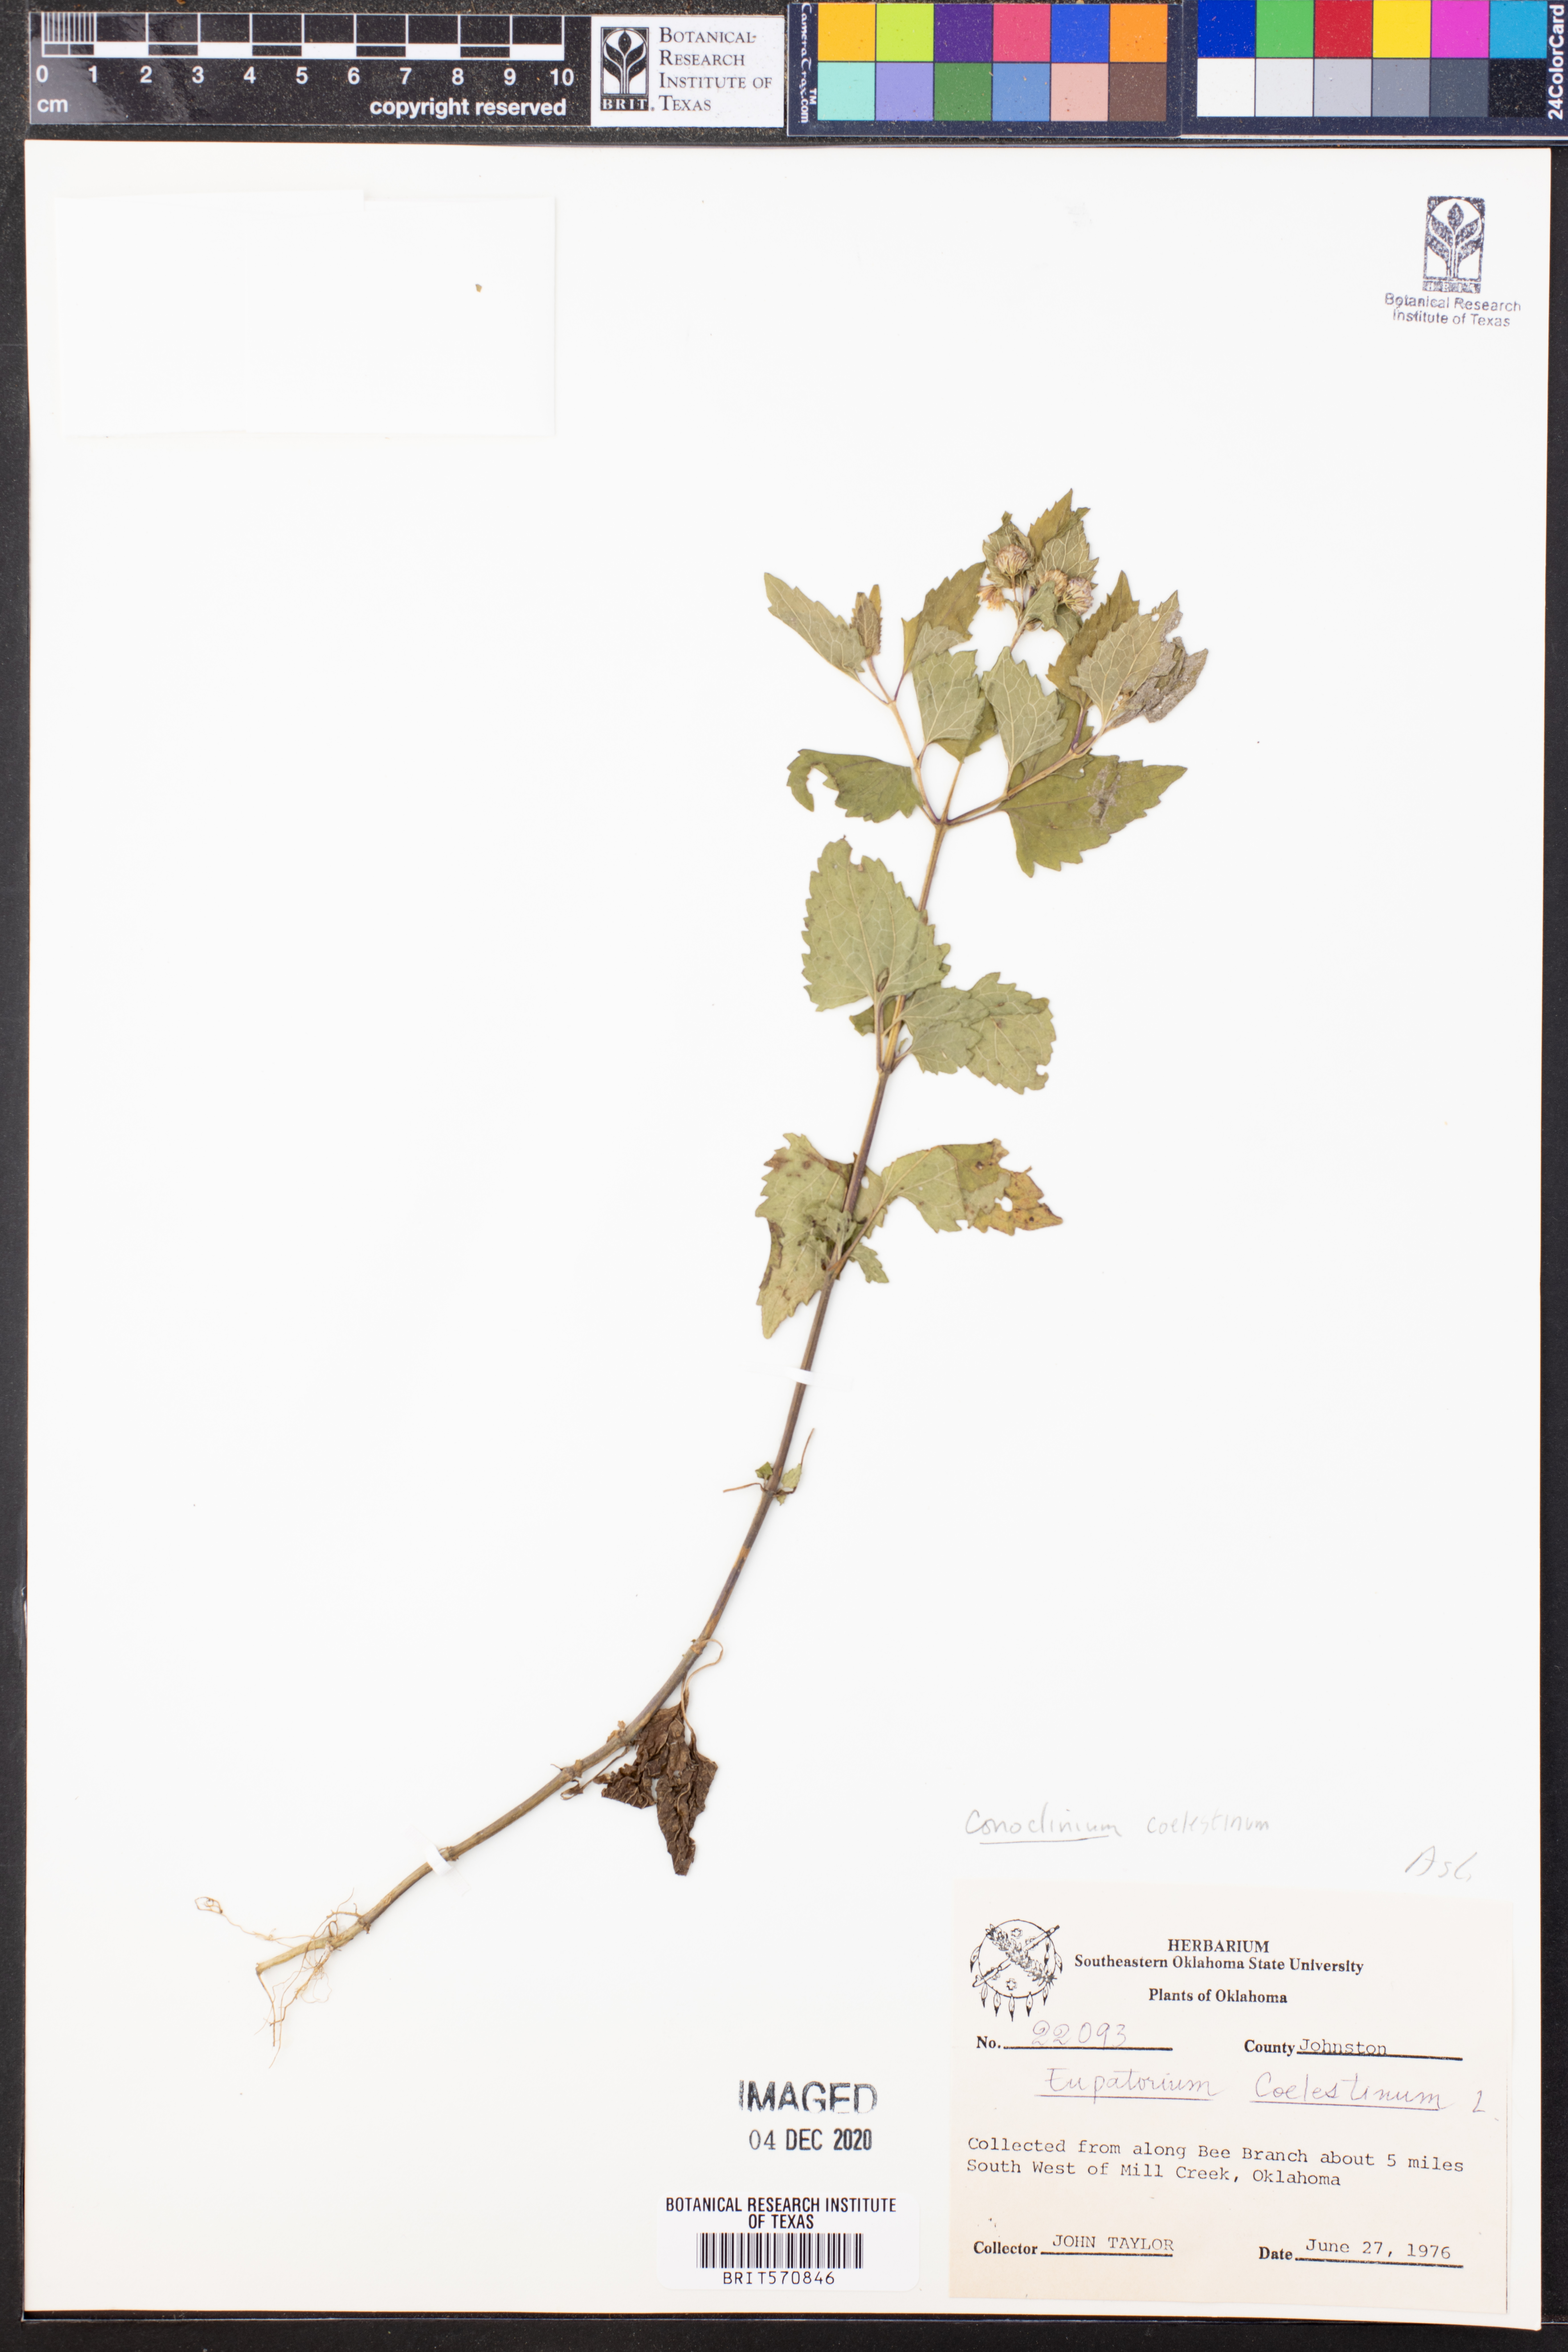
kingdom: Plantae
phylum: Tracheophyta
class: Magnoliopsida
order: Asterales
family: Asteraceae
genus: Conoclinium
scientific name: Conoclinium coelestinum
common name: Blue mistflower
